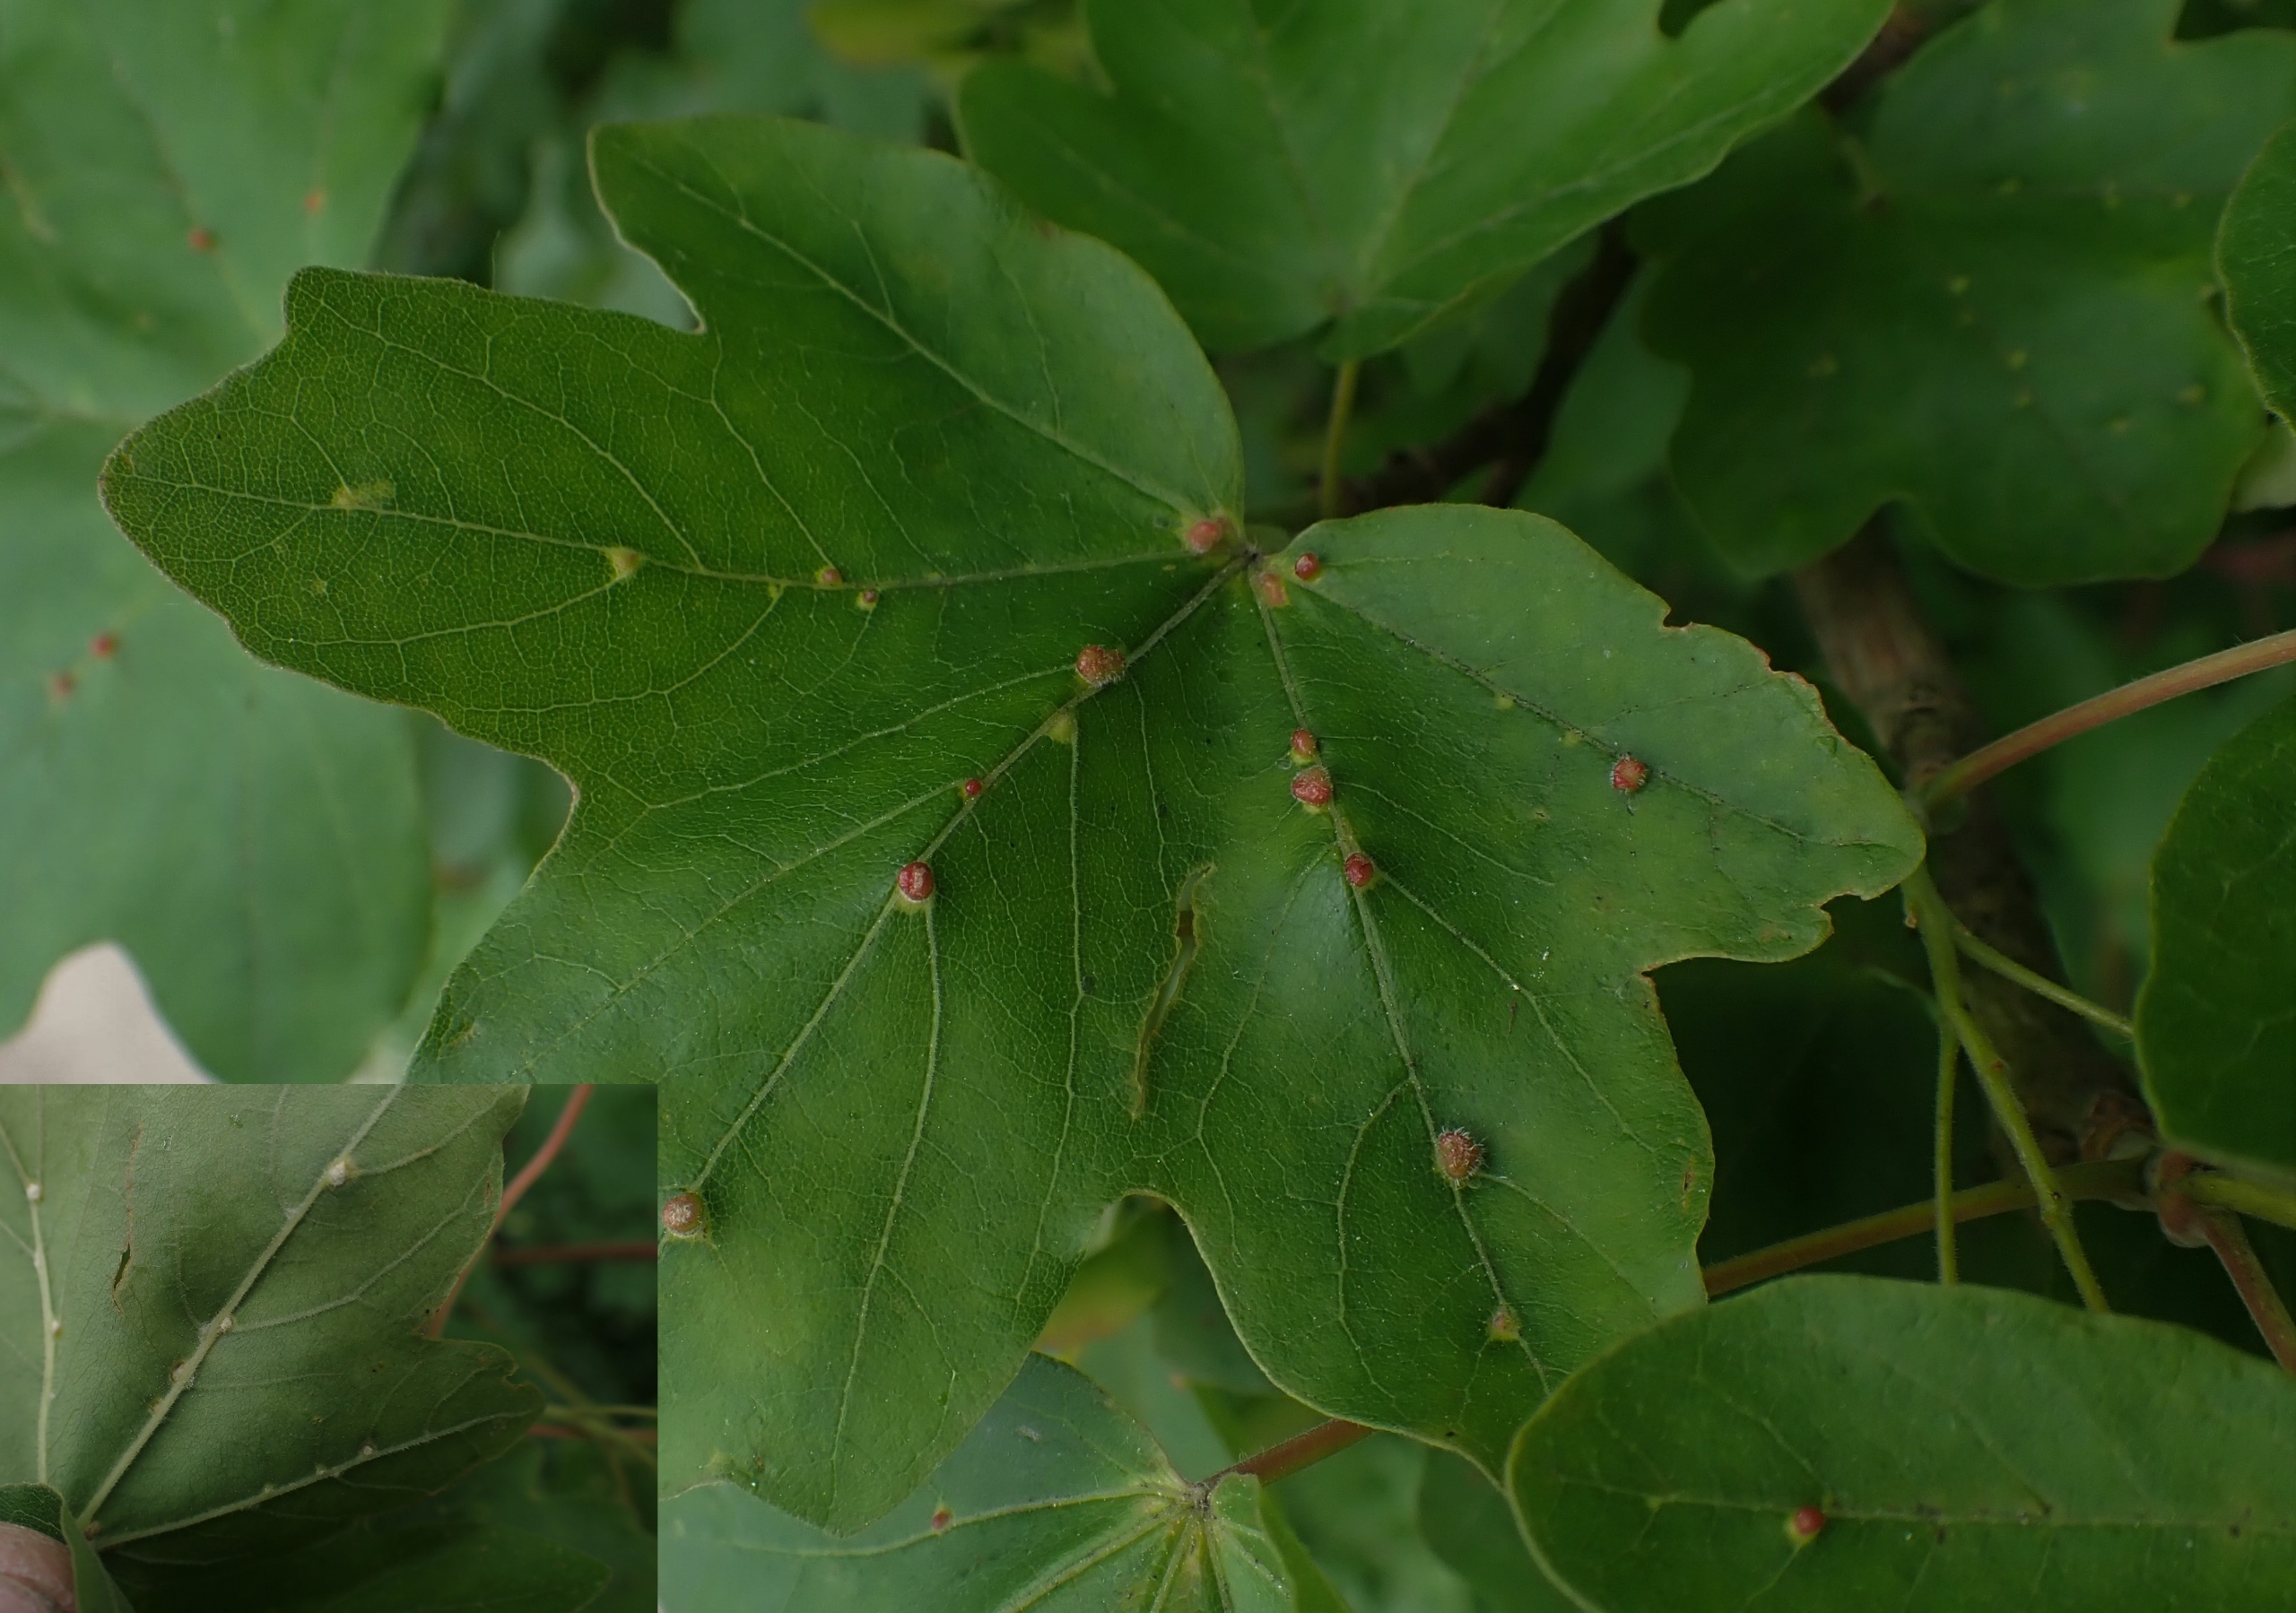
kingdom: Animalia
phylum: Arthropoda
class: Arachnida
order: Trombidiformes
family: Eriophyidae
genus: Aceria
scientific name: Aceria macrochelus
